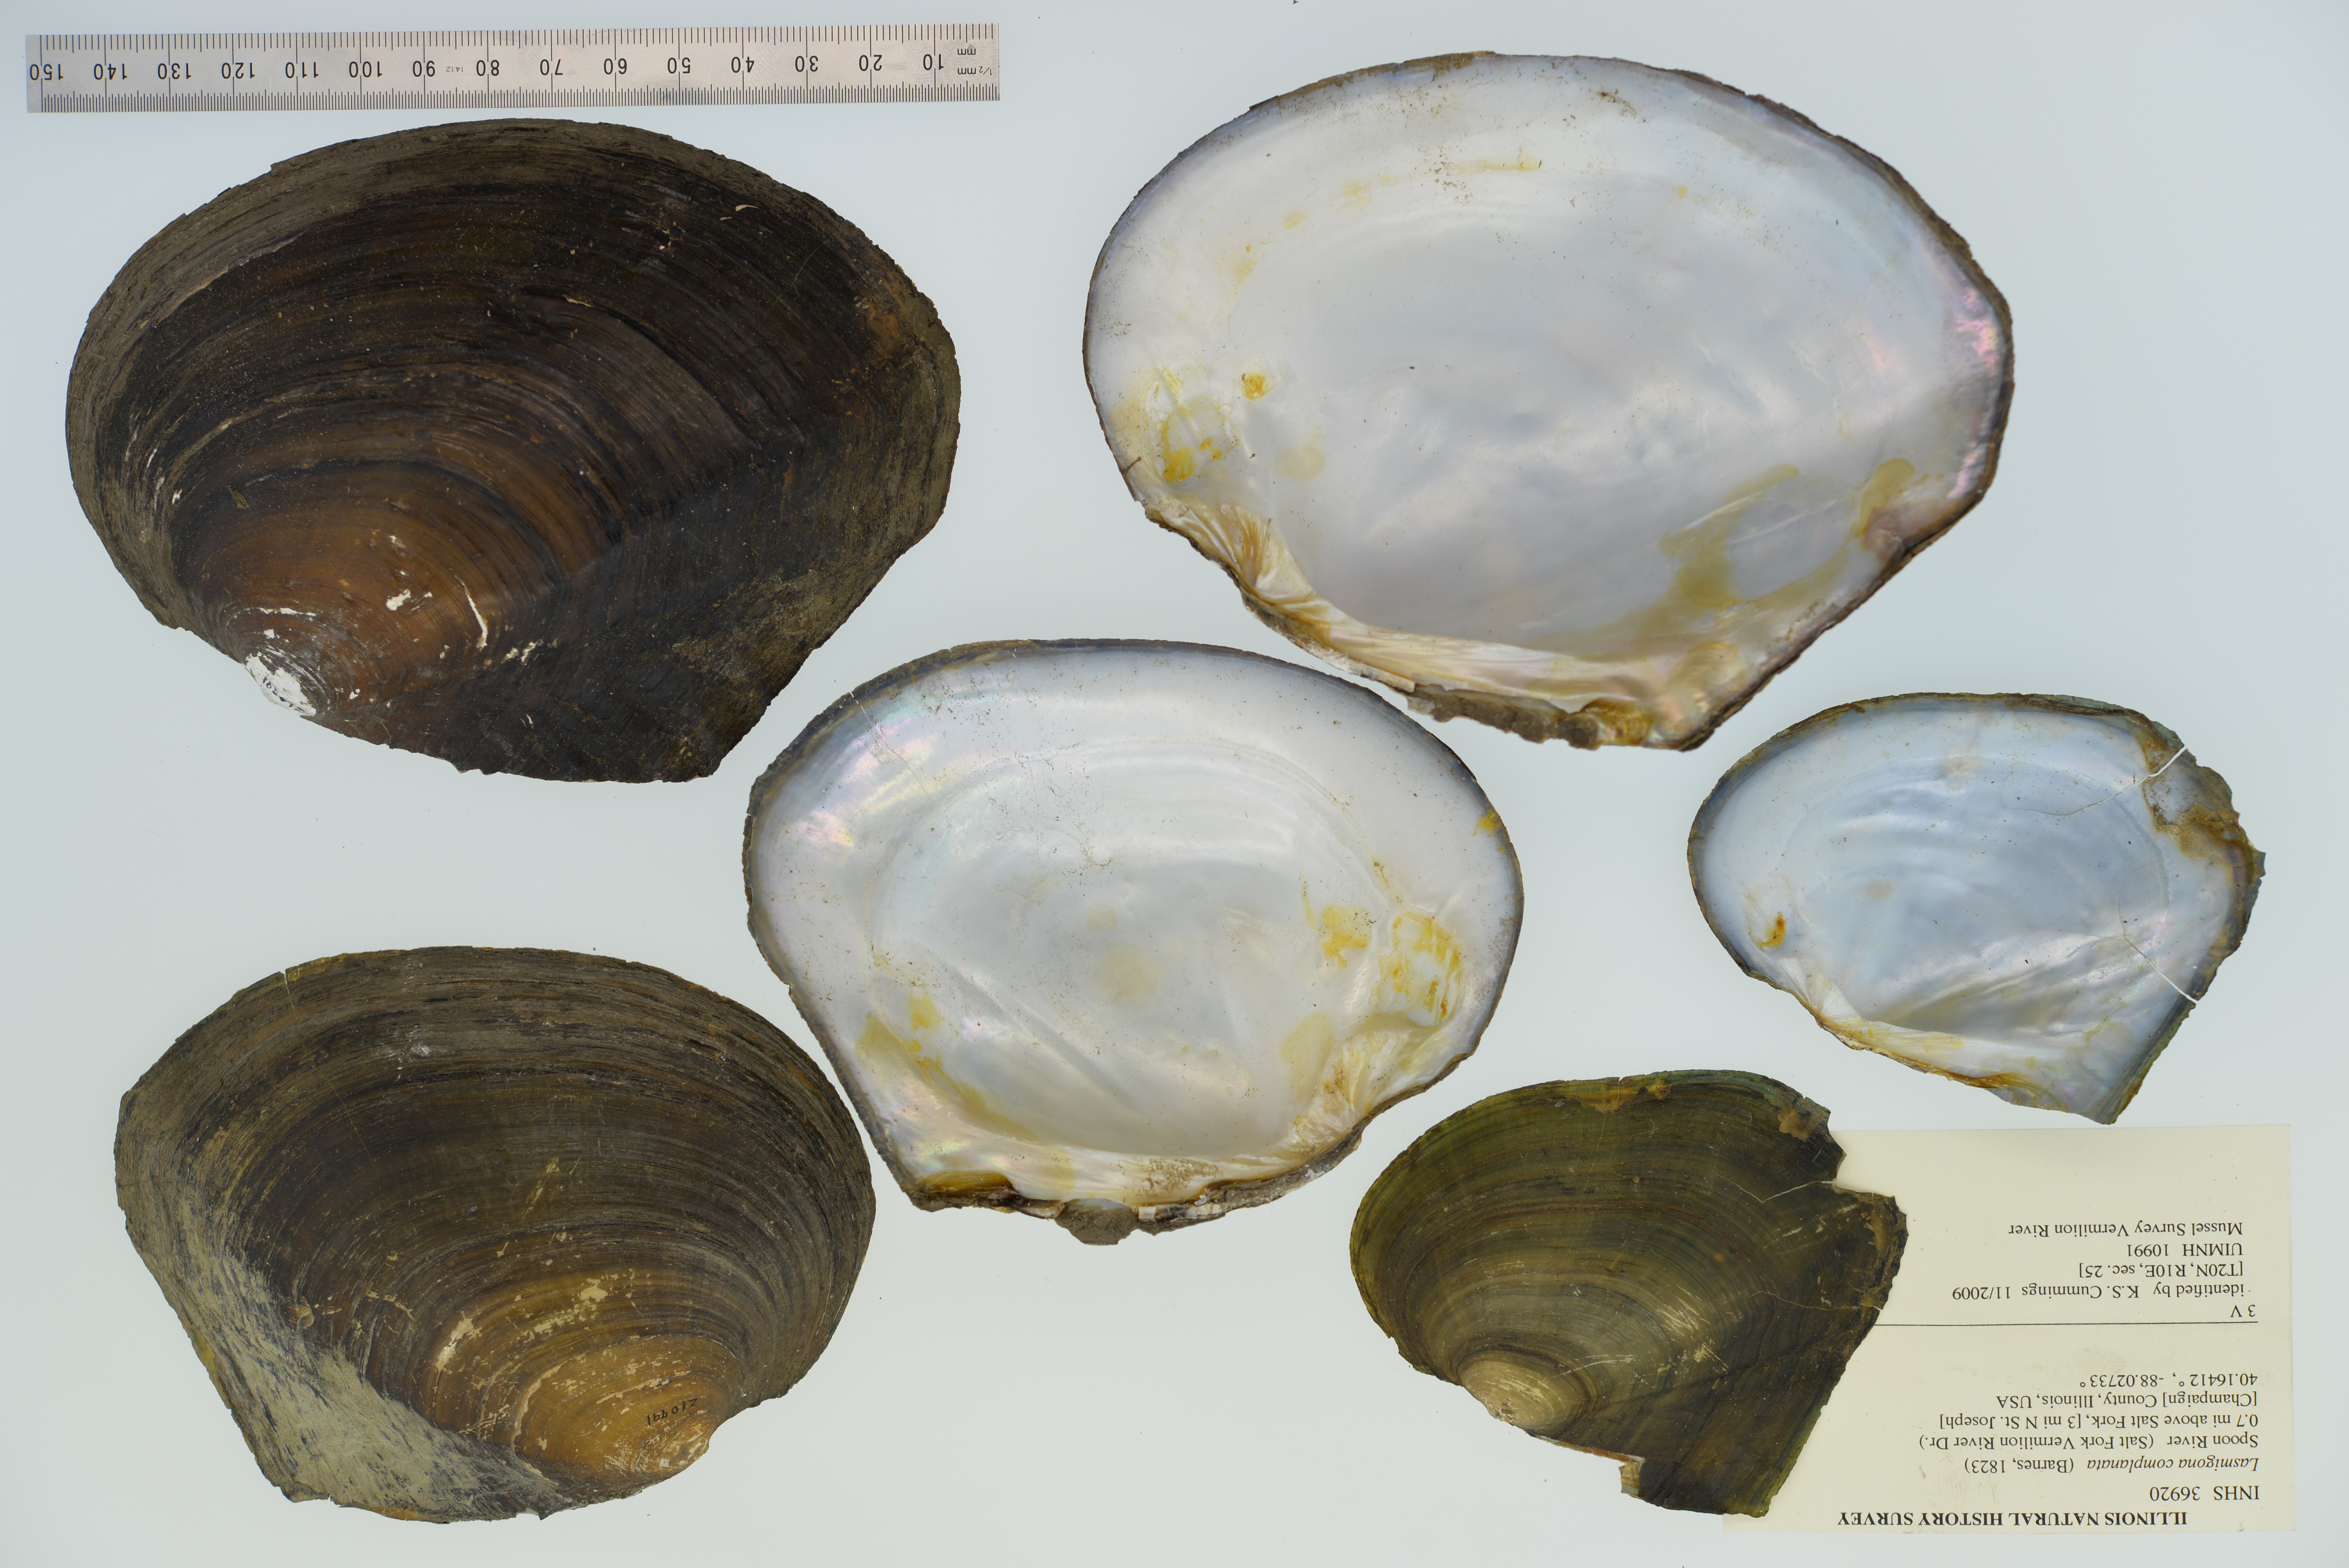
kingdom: Animalia
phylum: Mollusca
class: Bivalvia
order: Unionida
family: Unionidae
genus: Lasmigona
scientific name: Lasmigona complanata
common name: White heelsplitter
